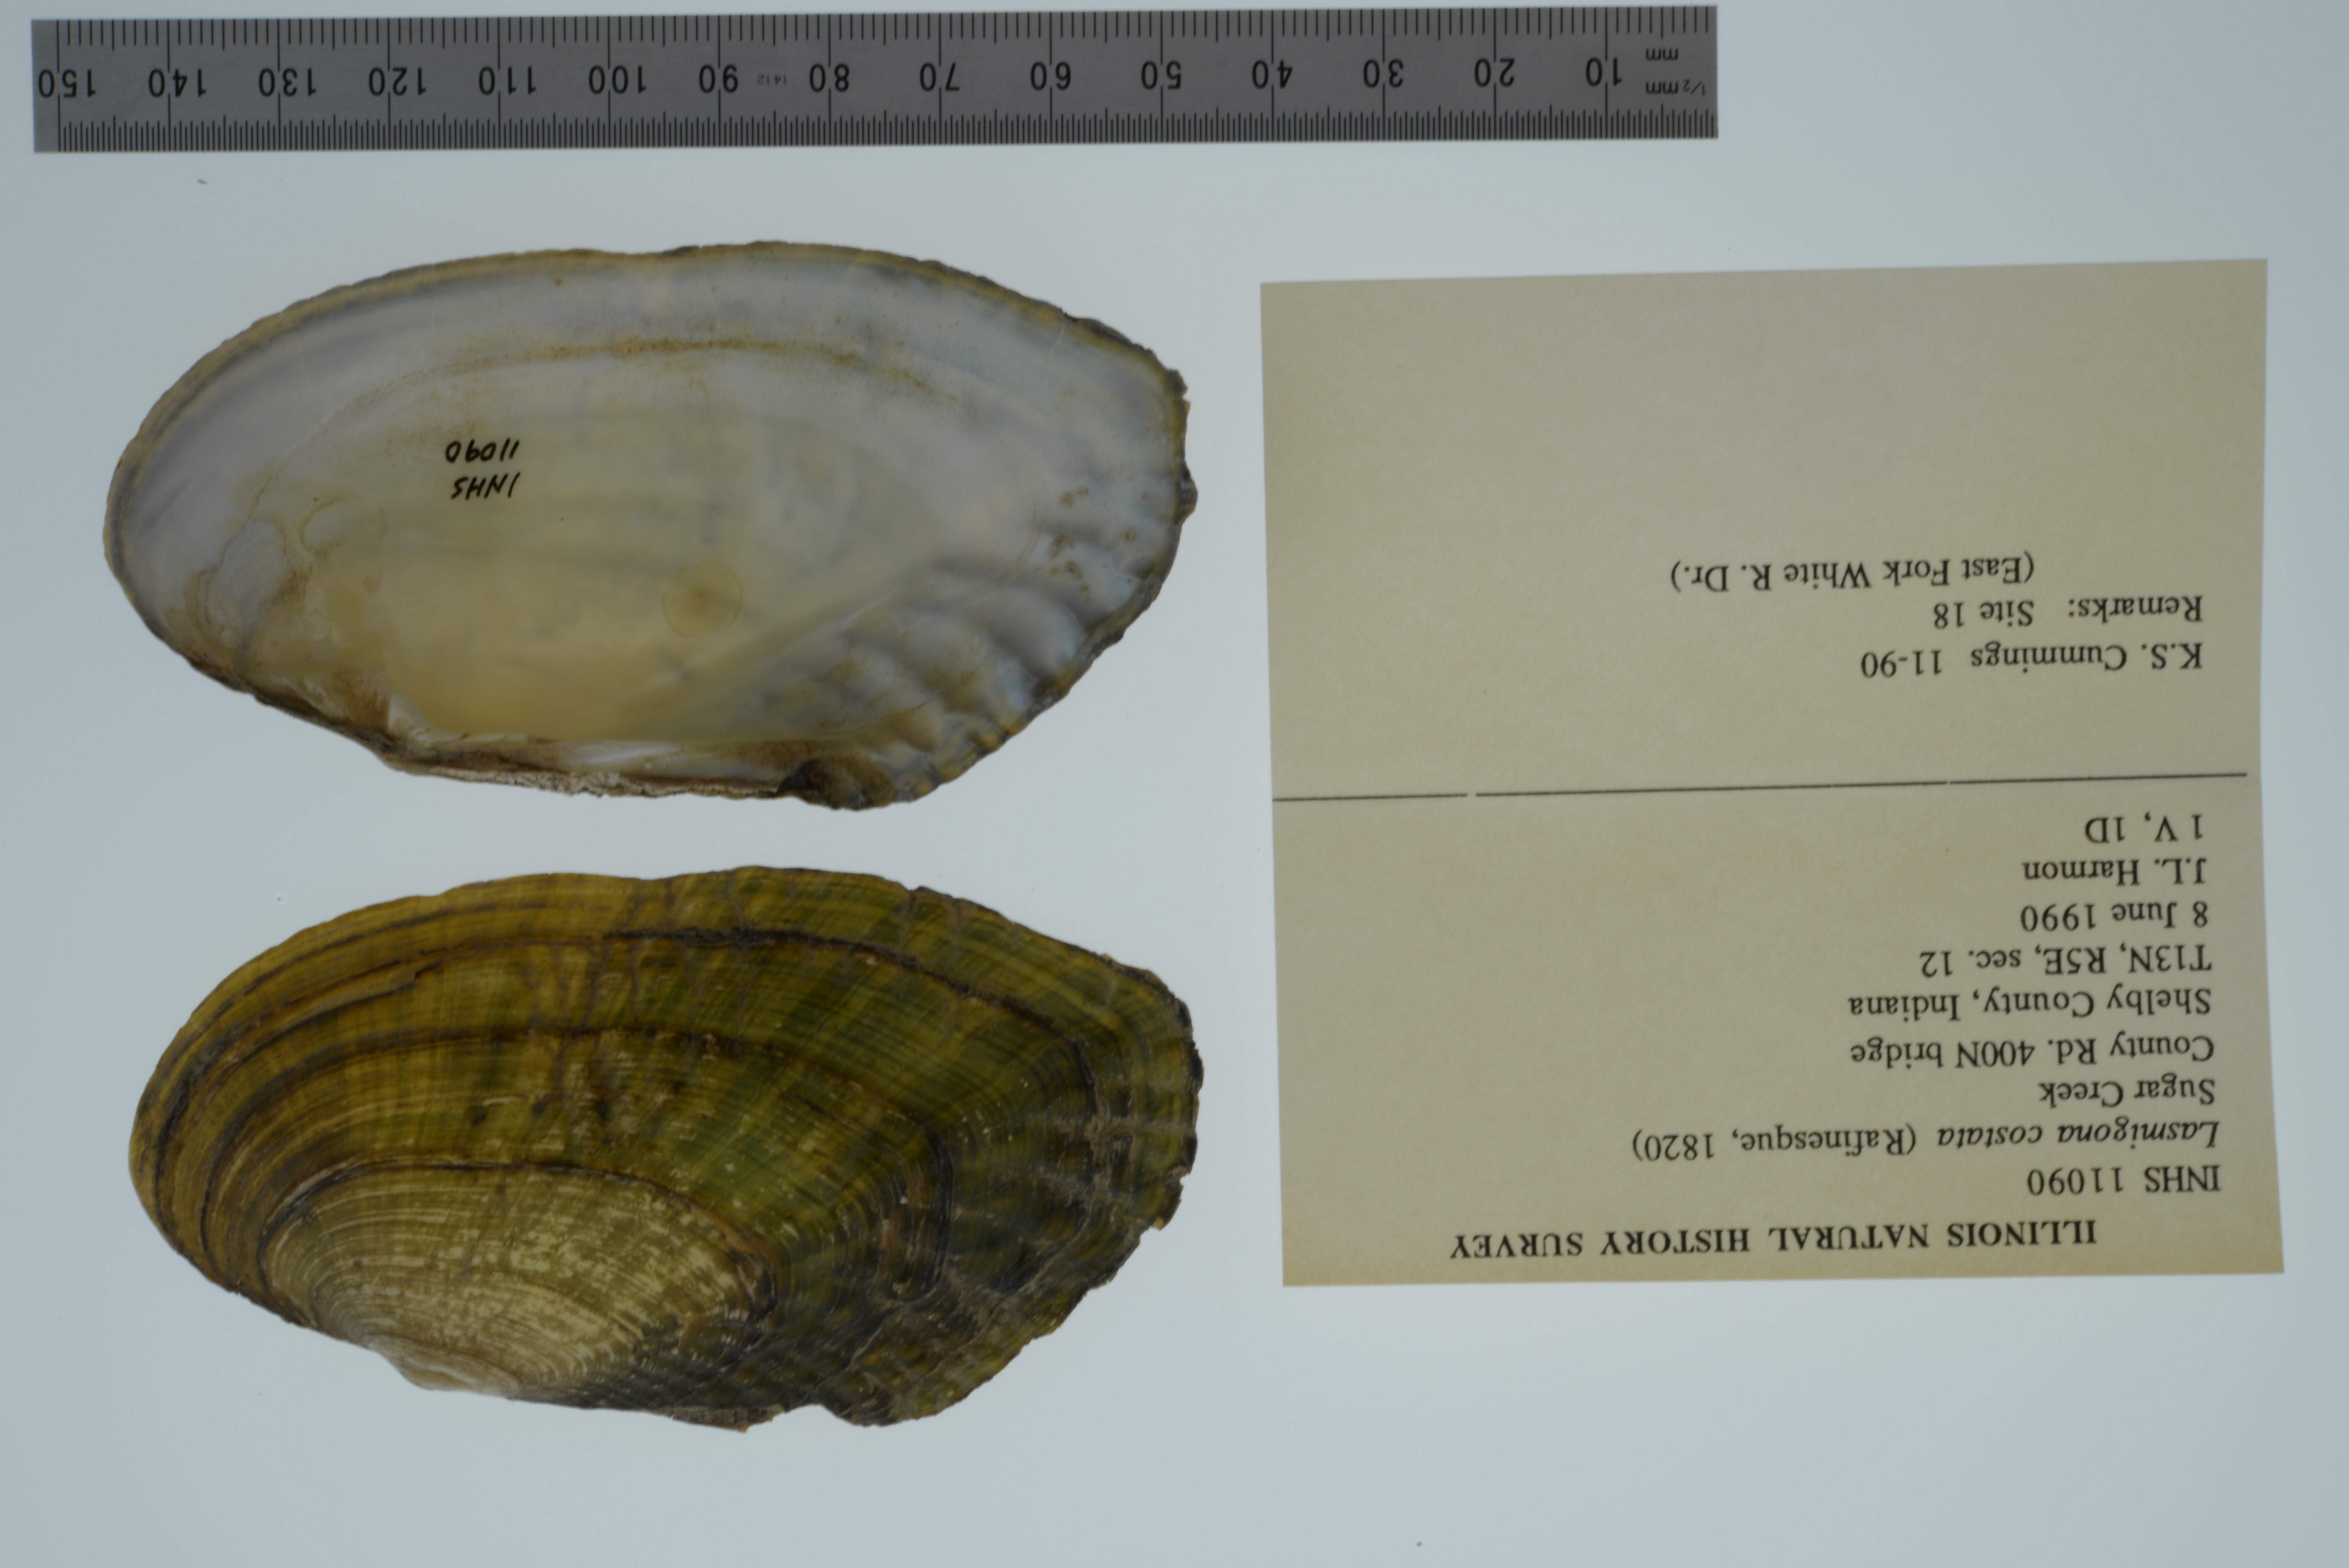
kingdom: Animalia
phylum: Mollusca
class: Bivalvia
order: Unionida
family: Unionidae
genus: Lasmigona
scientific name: Lasmigona costata
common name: Flutedshell
